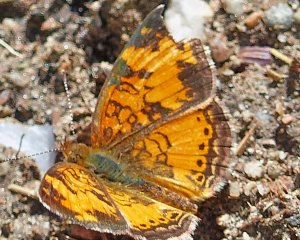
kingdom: Animalia
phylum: Arthropoda
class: Insecta
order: Lepidoptera
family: Nymphalidae
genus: Phyciodes
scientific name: Phyciodes tharos
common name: Northern Crescent
